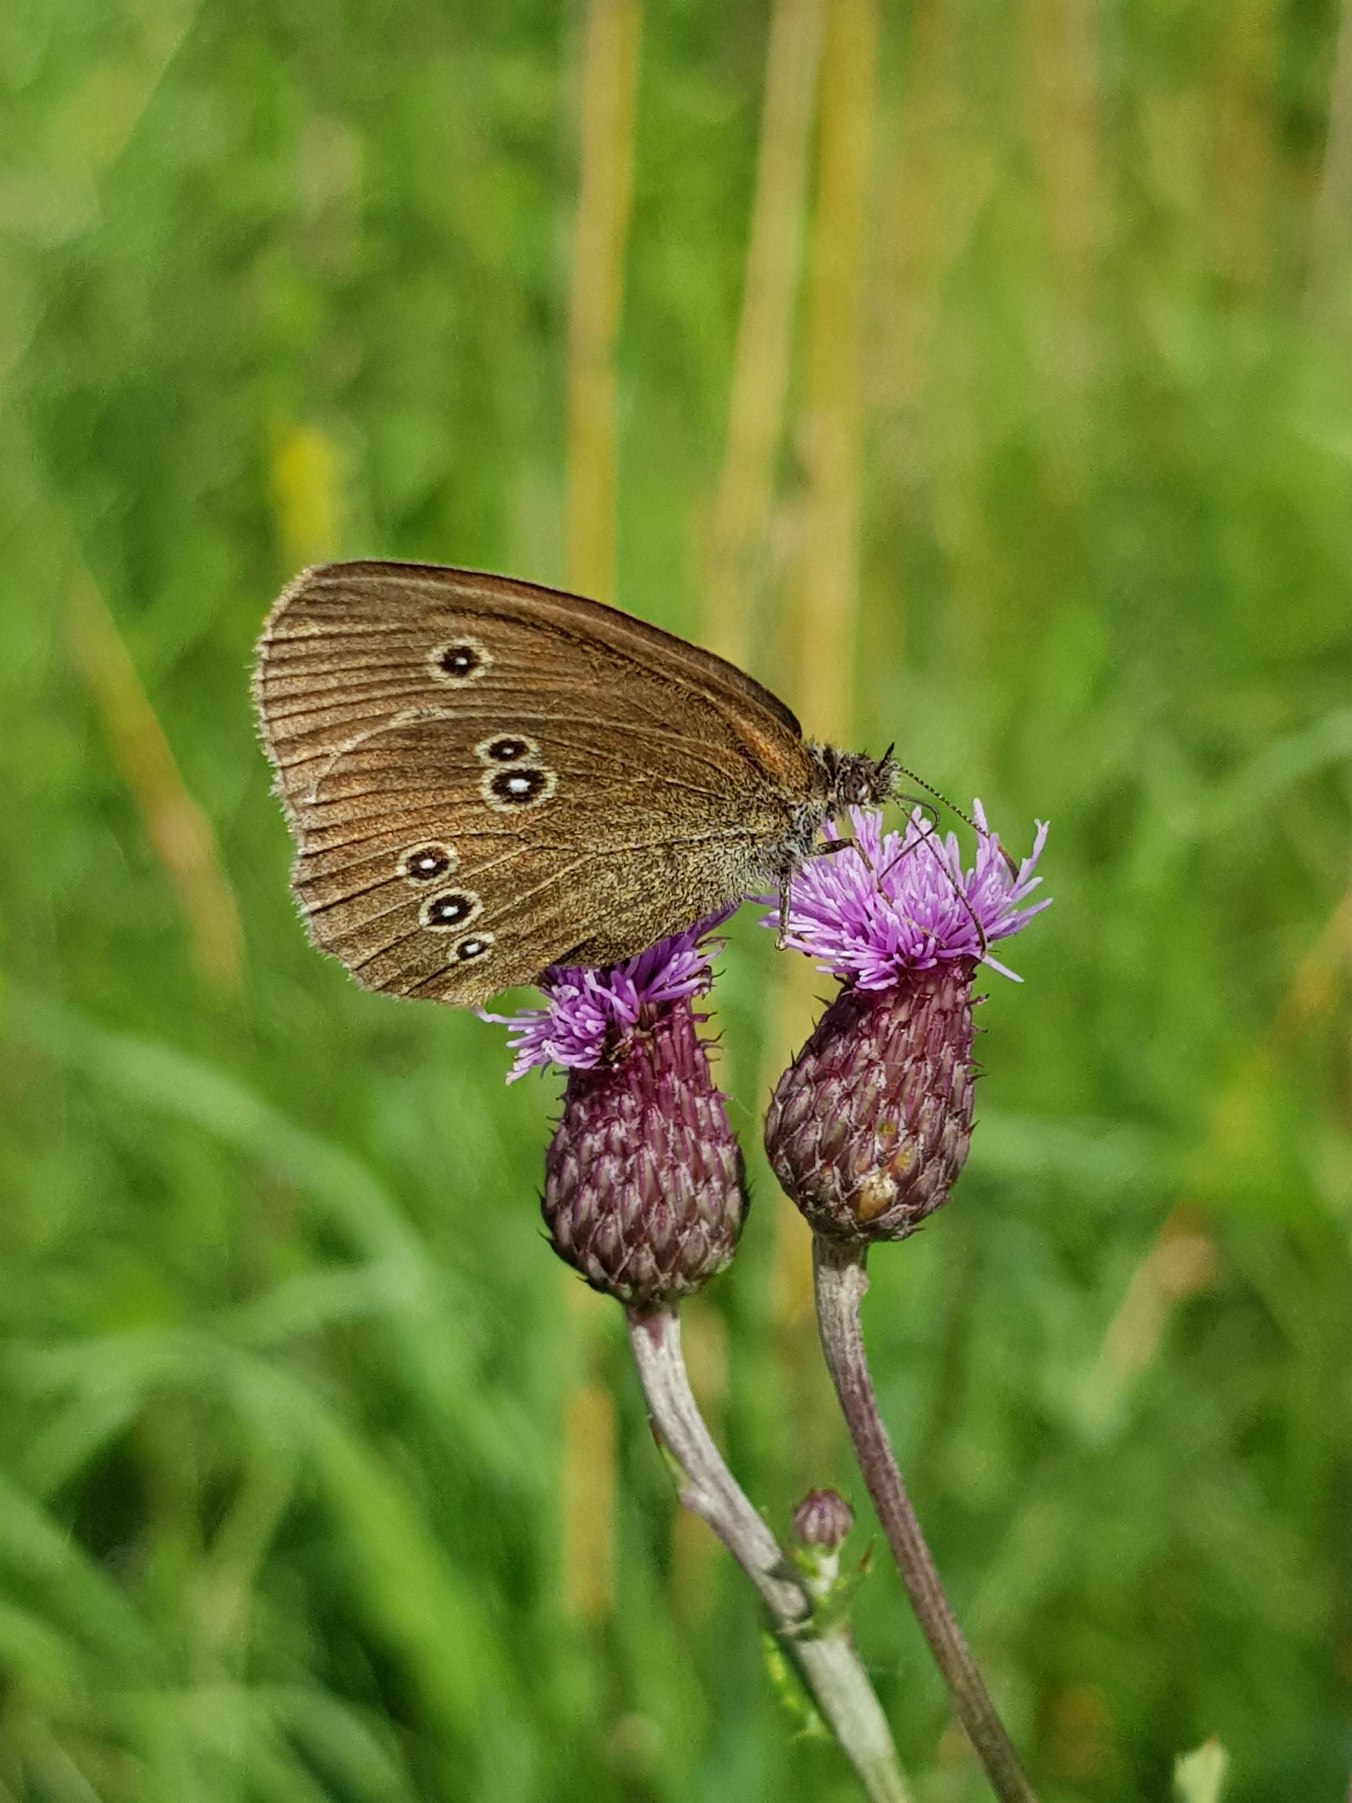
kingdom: Animalia
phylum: Arthropoda
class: Insecta
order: Lepidoptera
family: Nymphalidae
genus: Aphantopus
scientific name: Aphantopus hyperantus
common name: Engrandøje
